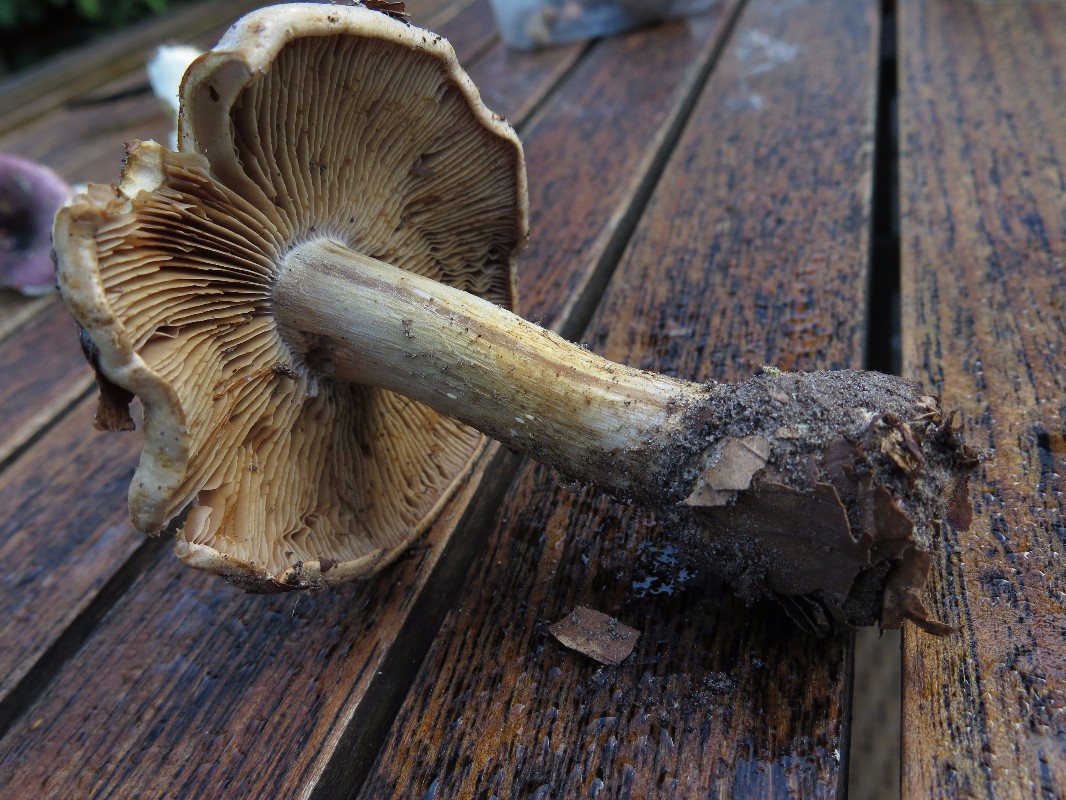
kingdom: Fungi
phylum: Basidiomycota
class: Agaricomycetes
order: Agaricales
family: Cortinariaceae
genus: Phlegmacium
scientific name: Phlegmacium luhmannii
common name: musegrå slørhat
